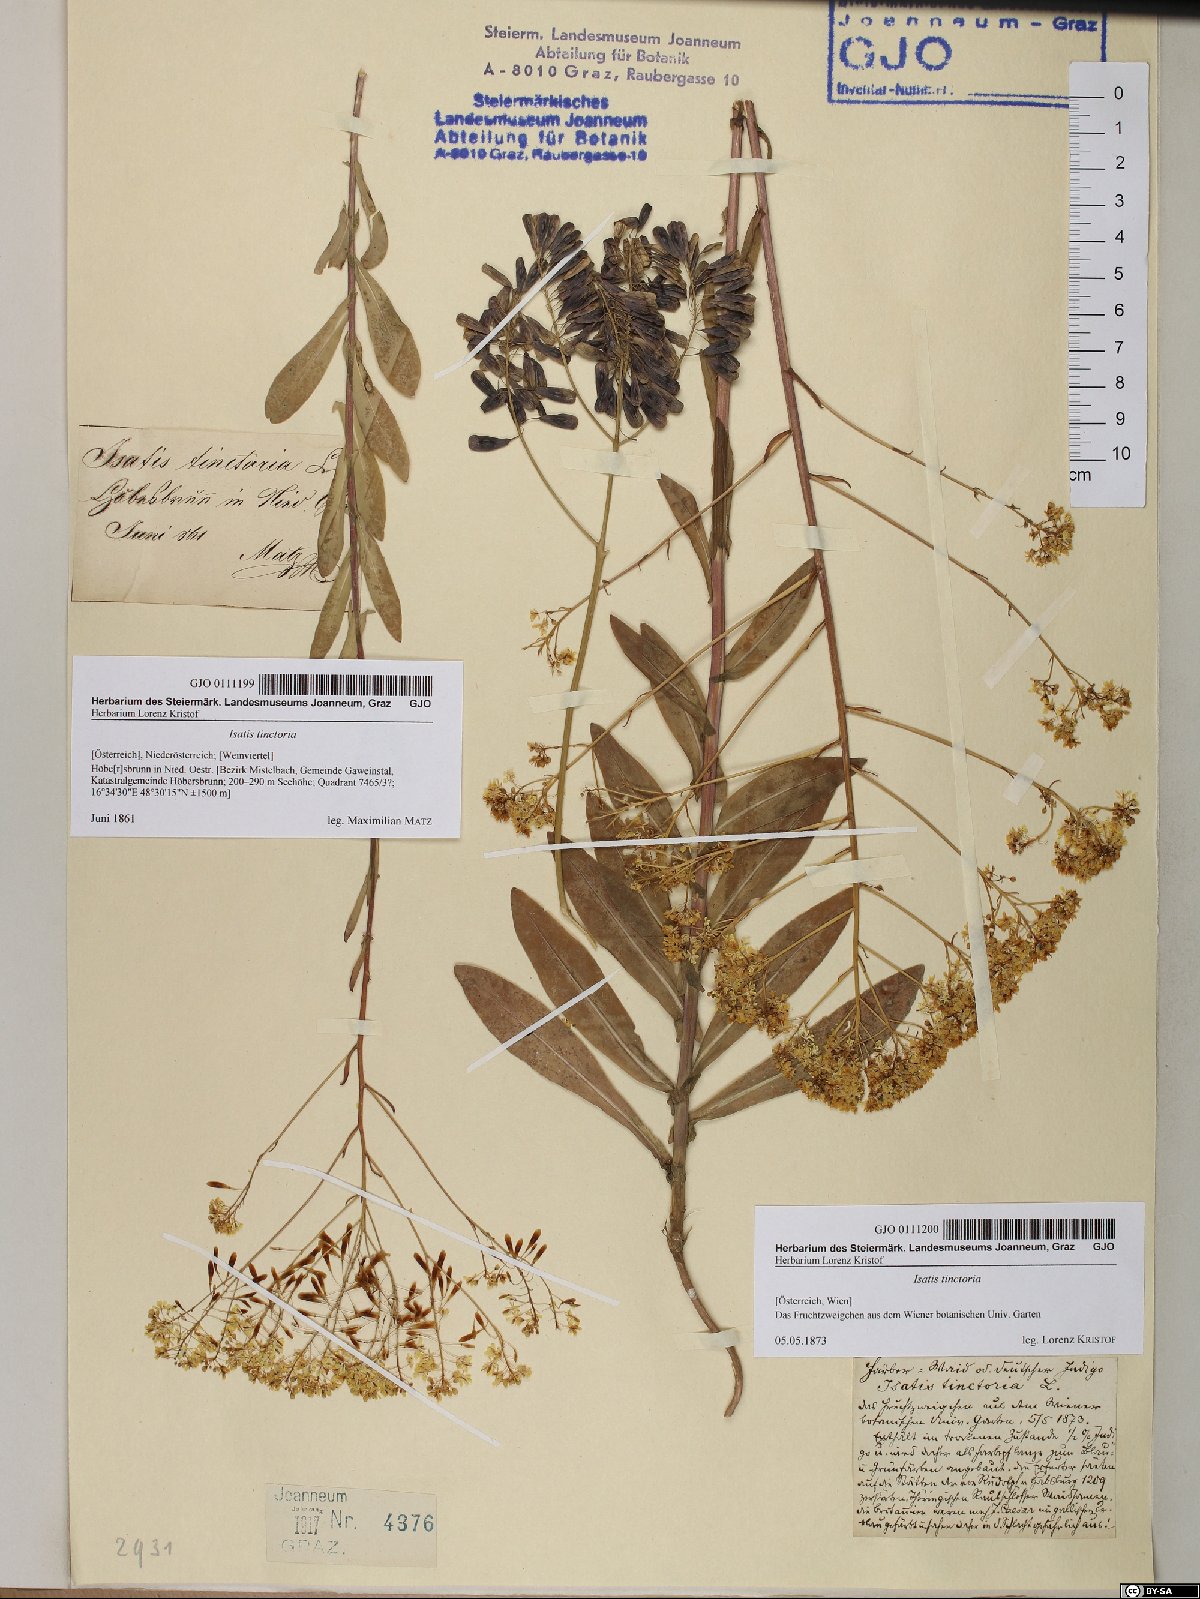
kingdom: Plantae
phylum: Tracheophyta
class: Magnoliopsida
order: Brassicales
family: Brassicaceae
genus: Isatis
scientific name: Isatis tinctoria
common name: Woad
